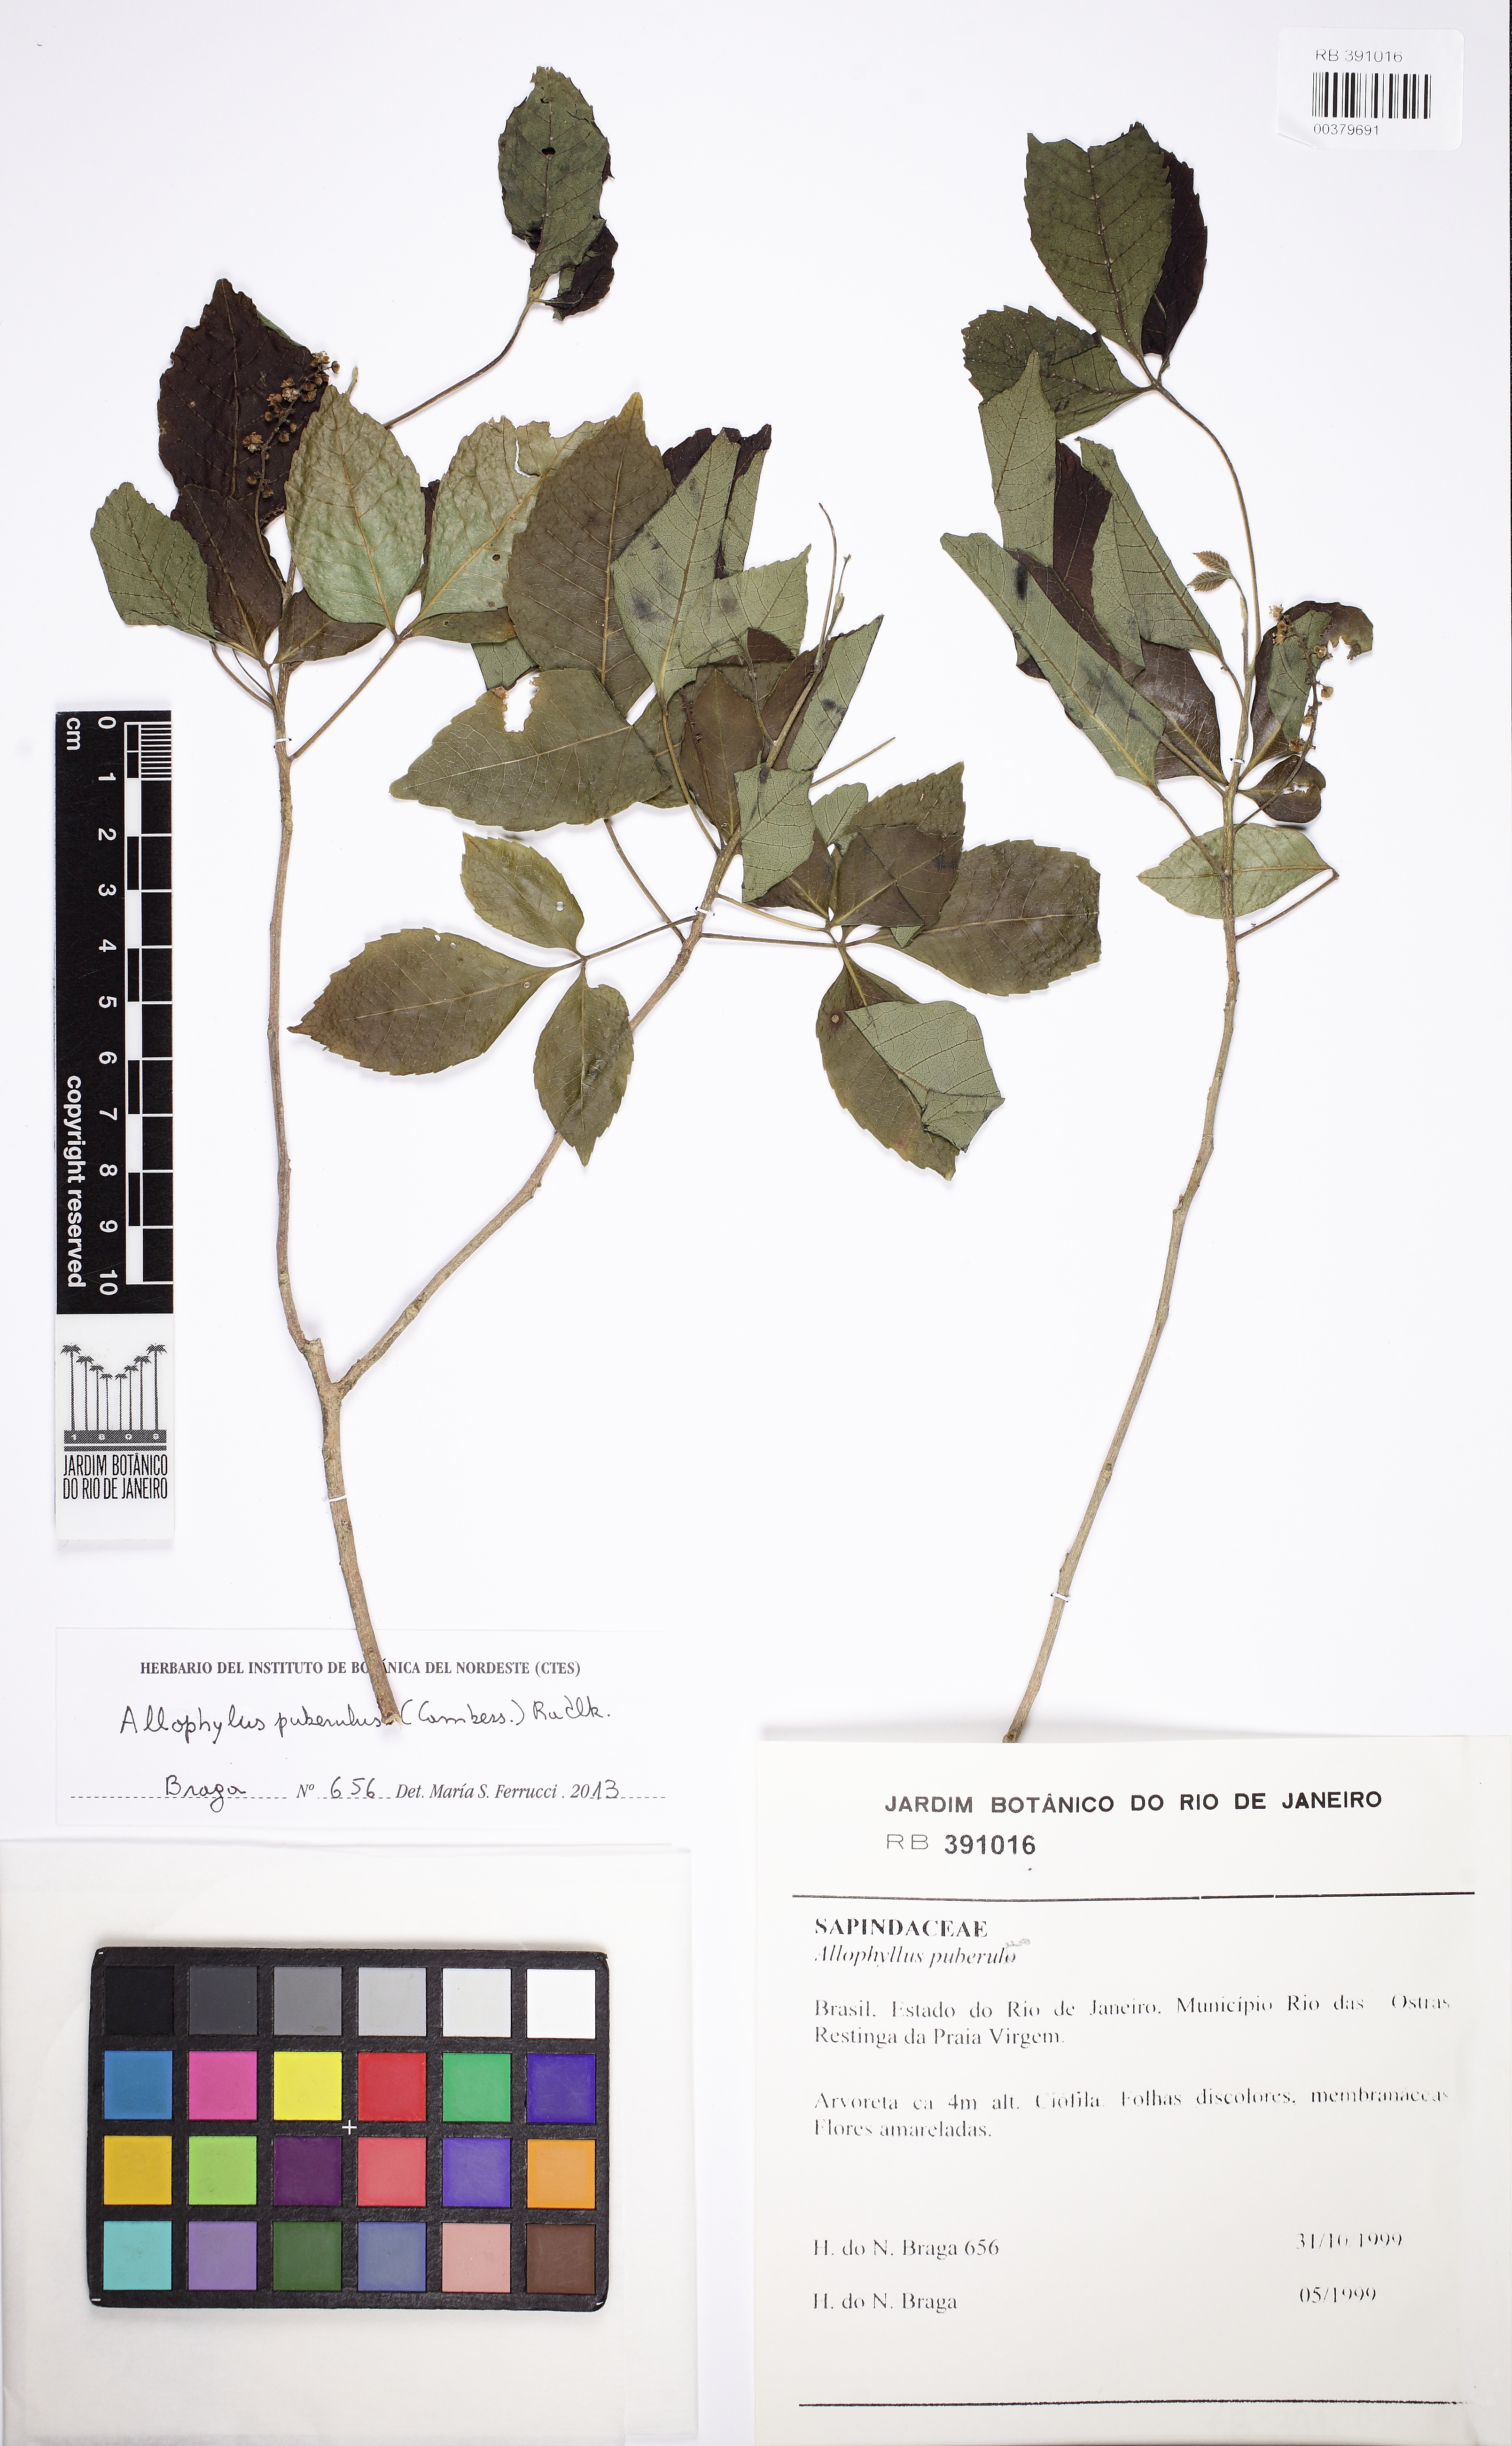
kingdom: Plantae
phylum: Tracheophyta
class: Magnoliopsida
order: Sapindales
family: Sapindaceae
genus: Allophylus
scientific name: Allophylus puberulus
